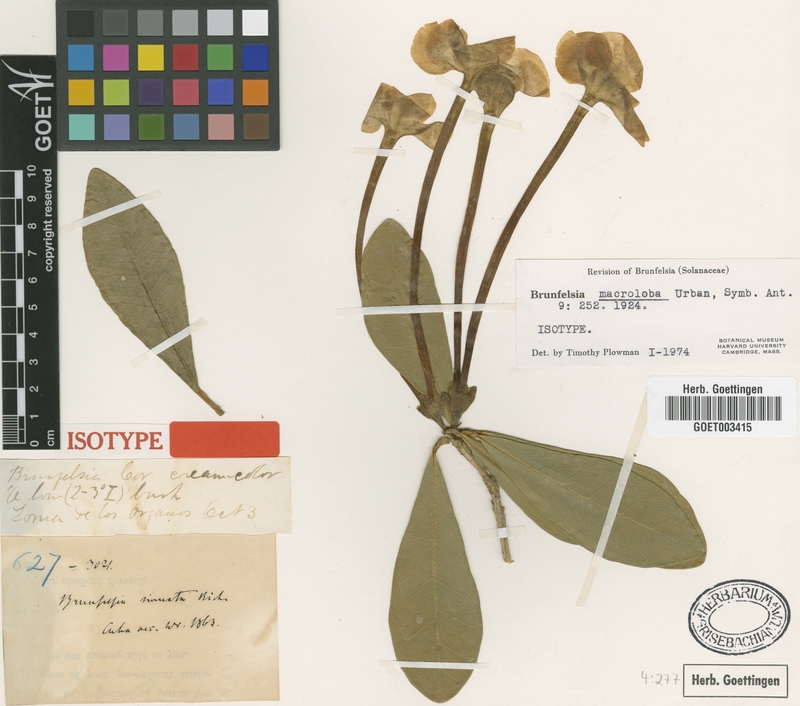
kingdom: Plantae
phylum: Tracheophyta
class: Magnoliopsida
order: Solanales
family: Solanaceae
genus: Brunfelsia
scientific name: Brunfelsia macroloba
